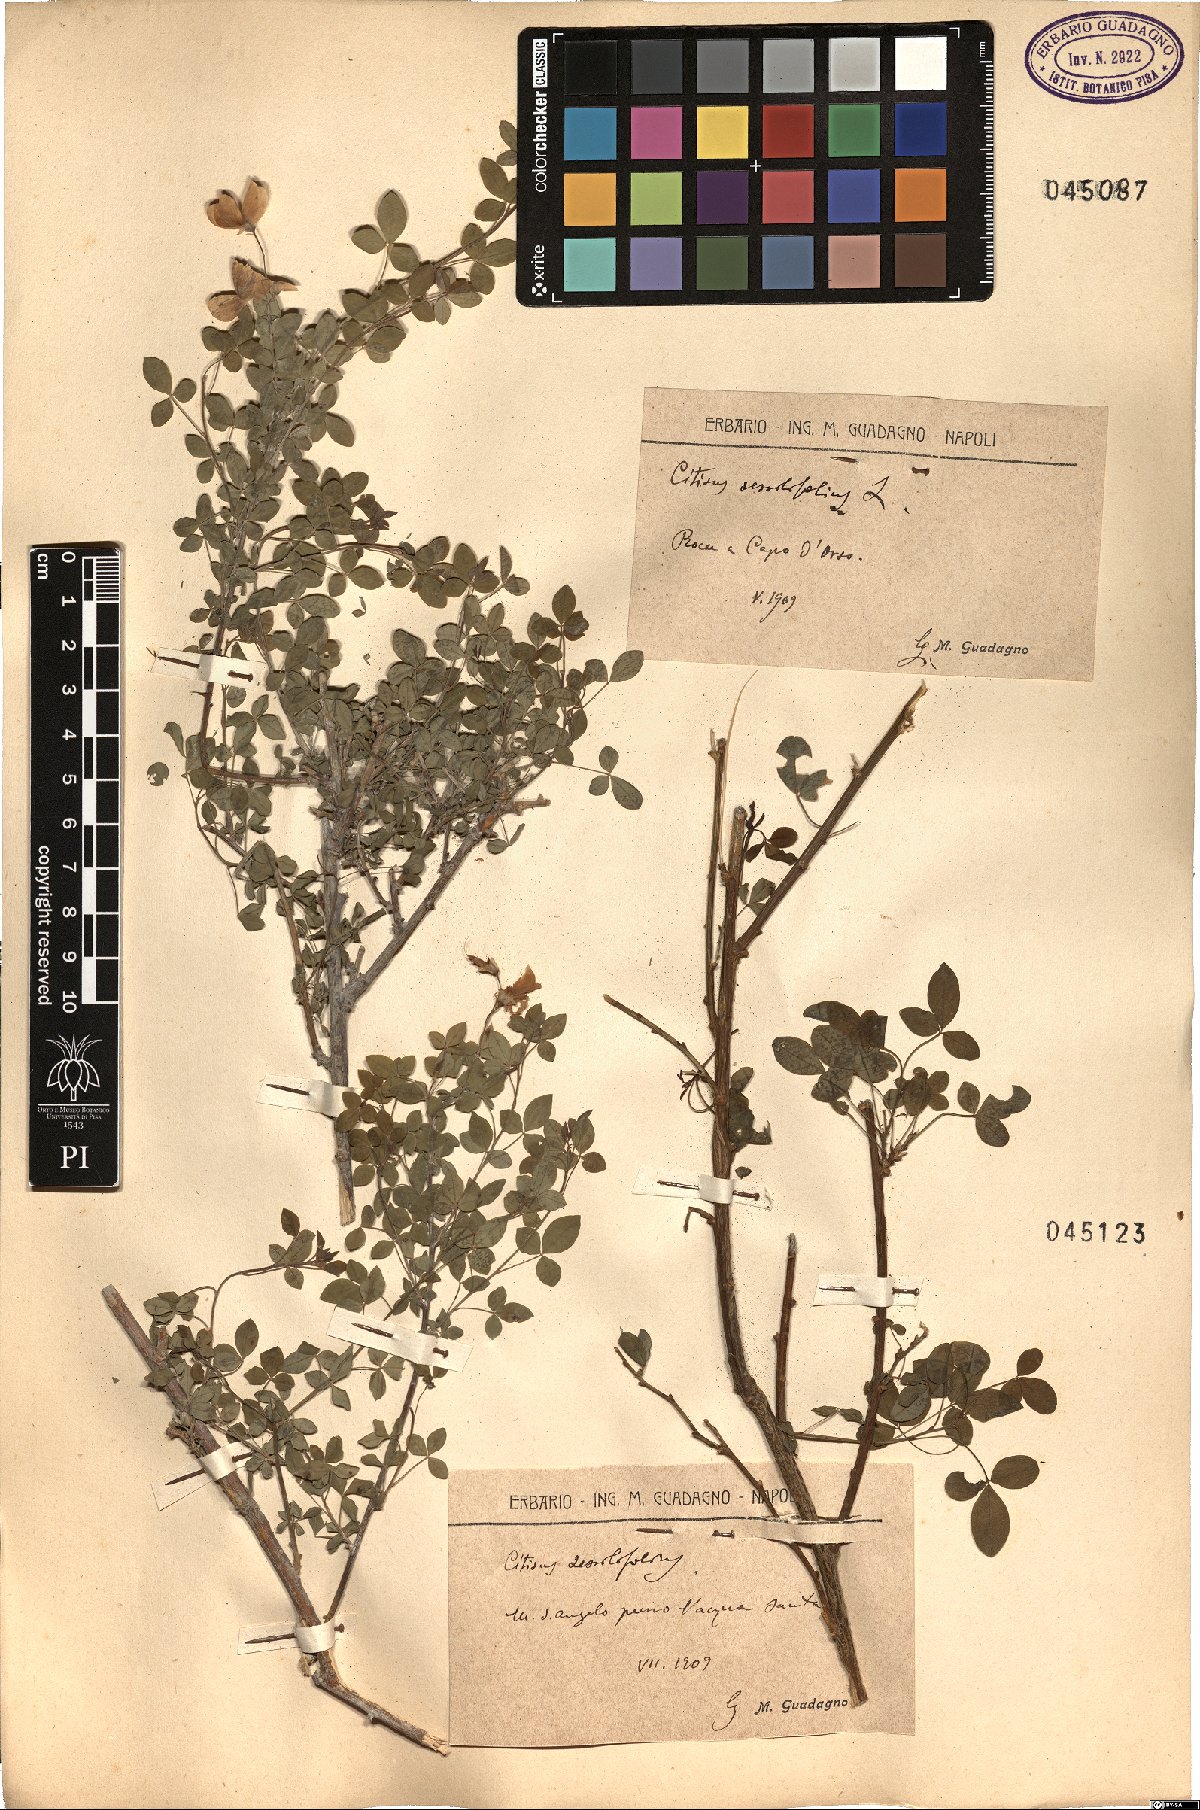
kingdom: Plantae
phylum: Tracheophyta
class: Magnoliopsida
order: Fabales
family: Fabaceae
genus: Cytisophyllum
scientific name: Cytisophyllum sessilifolium
